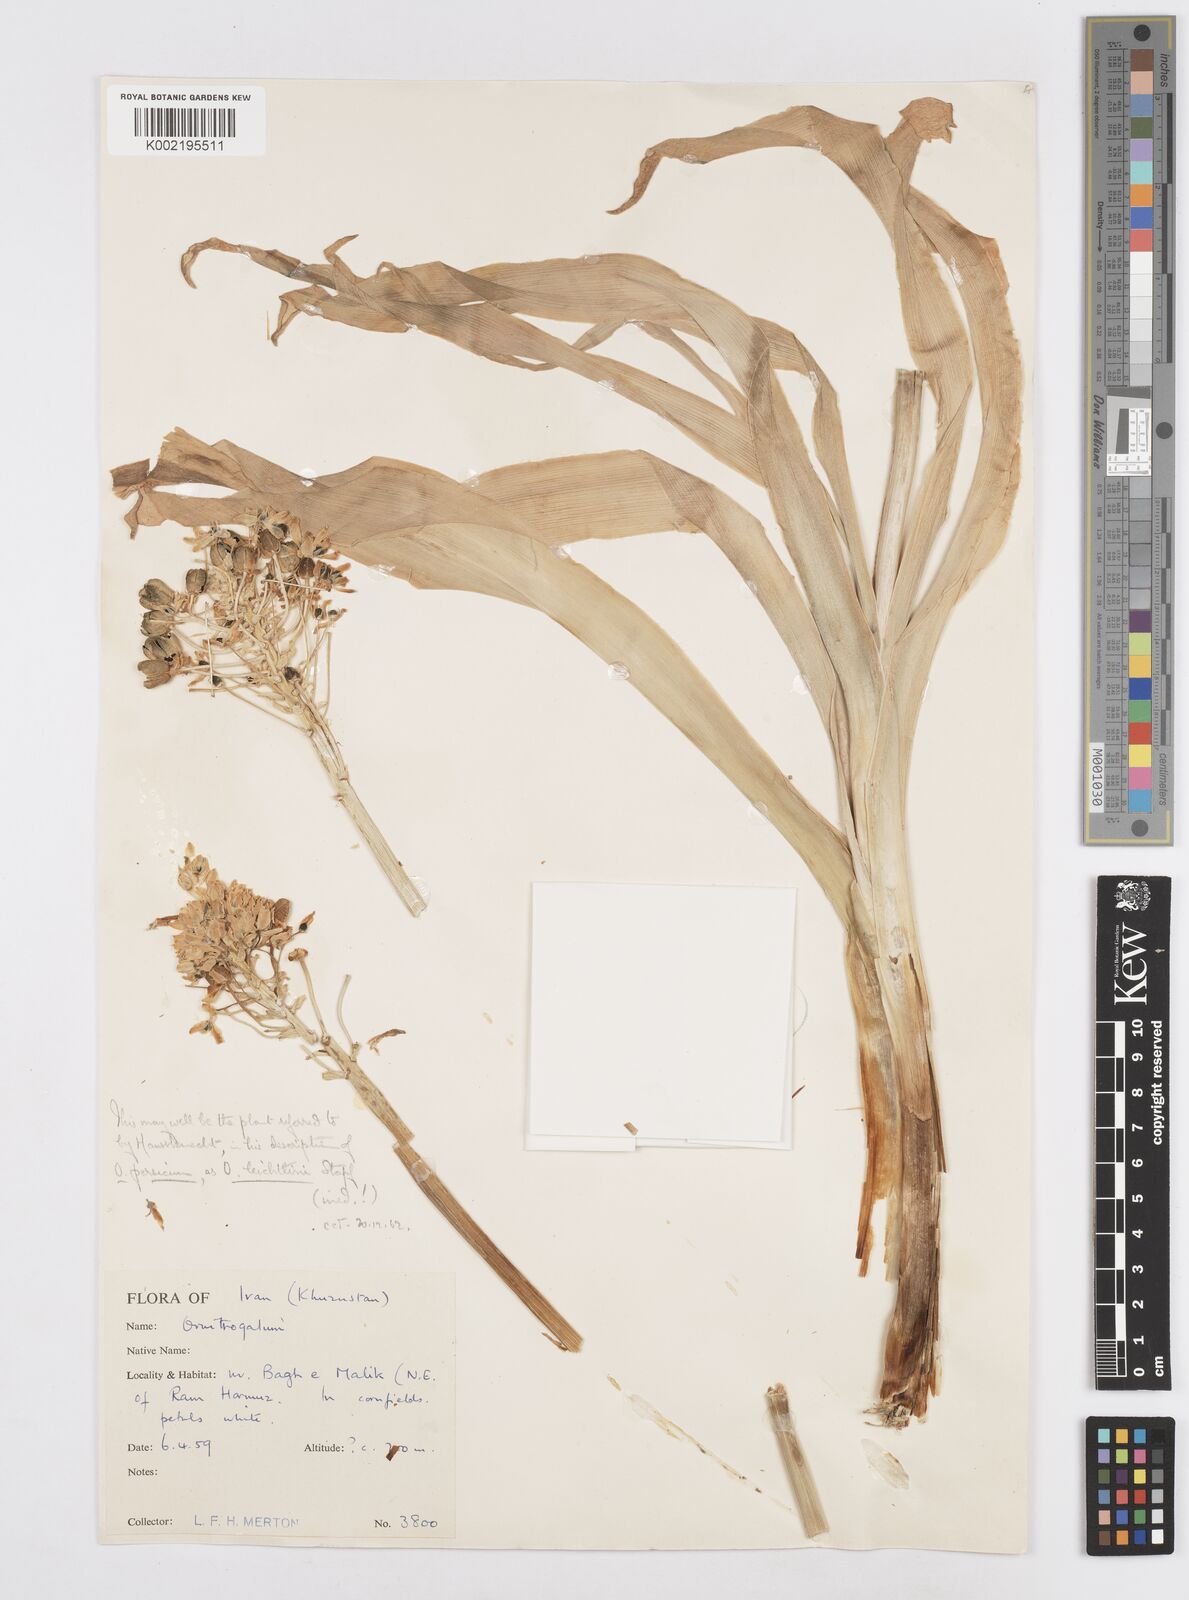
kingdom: Plantae
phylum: Tracheophyta
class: Liliopsida
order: Asparagales
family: Asparagaceae
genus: Ornithogalum
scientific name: Ornithogalum
